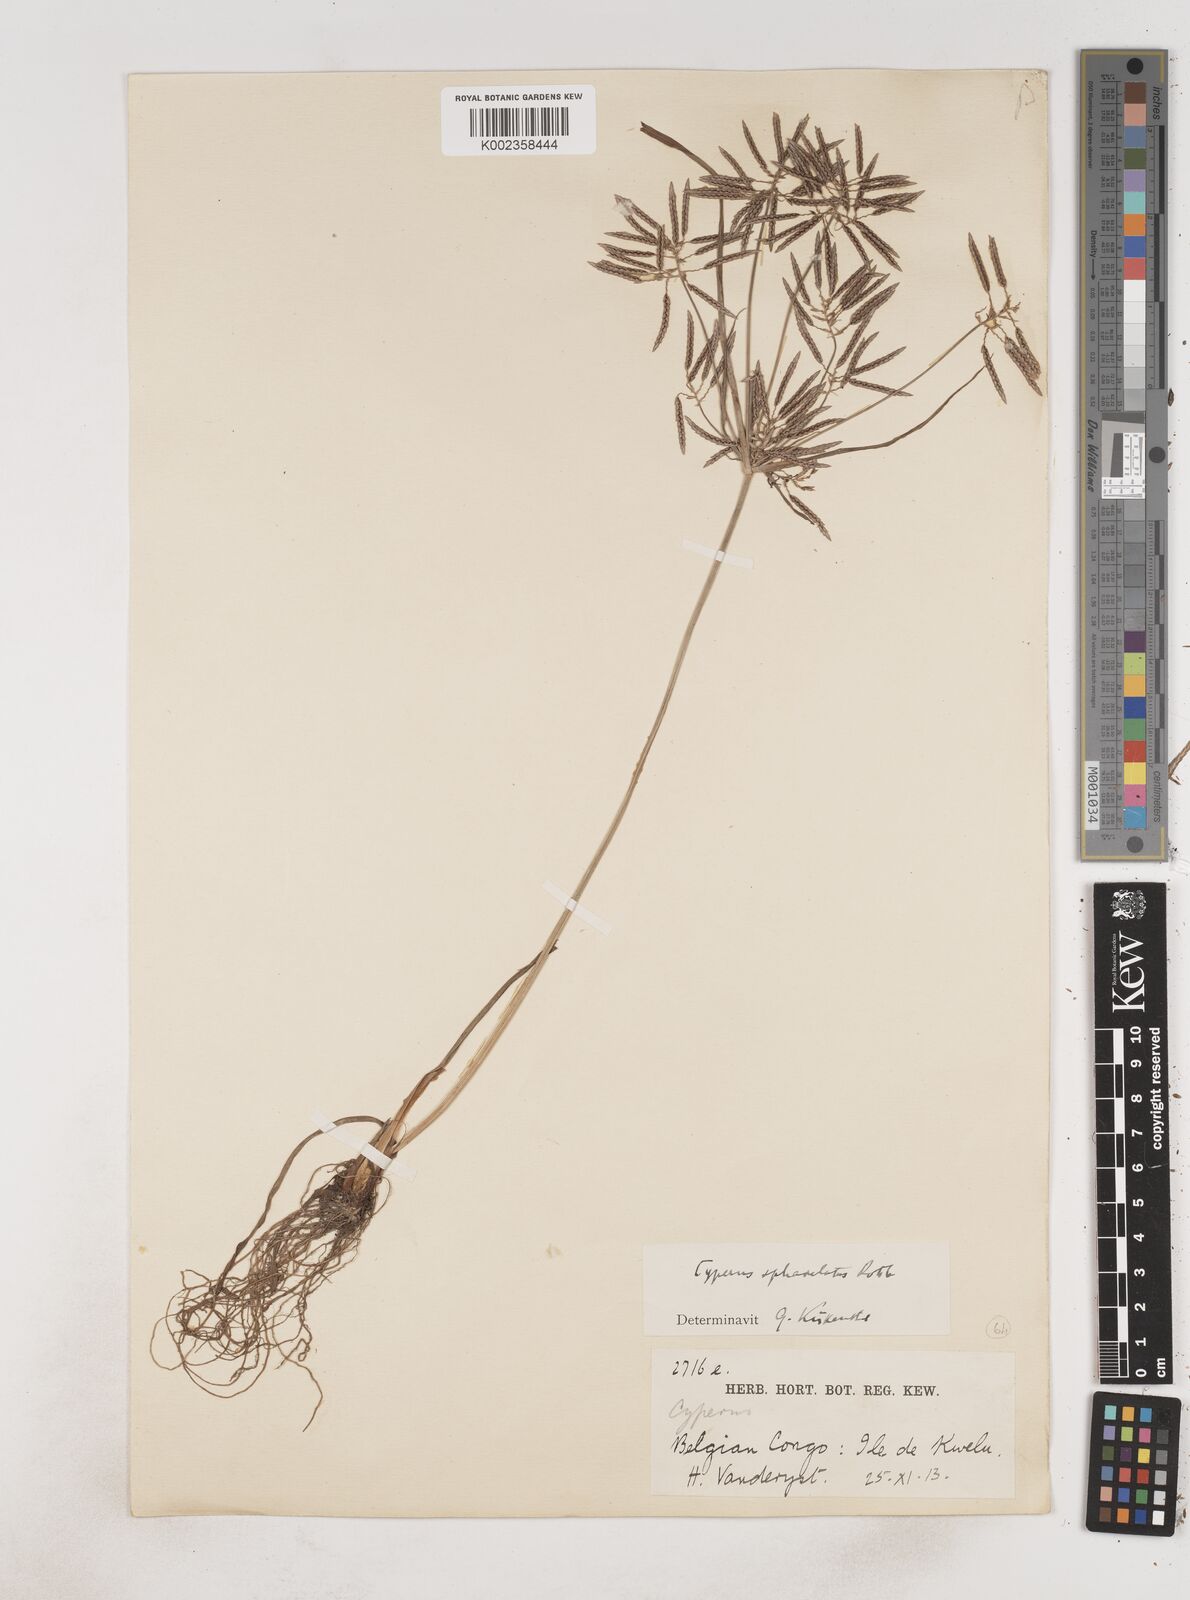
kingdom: Plantae
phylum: Tracheophyta
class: Liliopsida
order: Poales
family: Cyperaceae
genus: Cyperus
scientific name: Cyperus sphacelatus
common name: Roadside flatsedge
